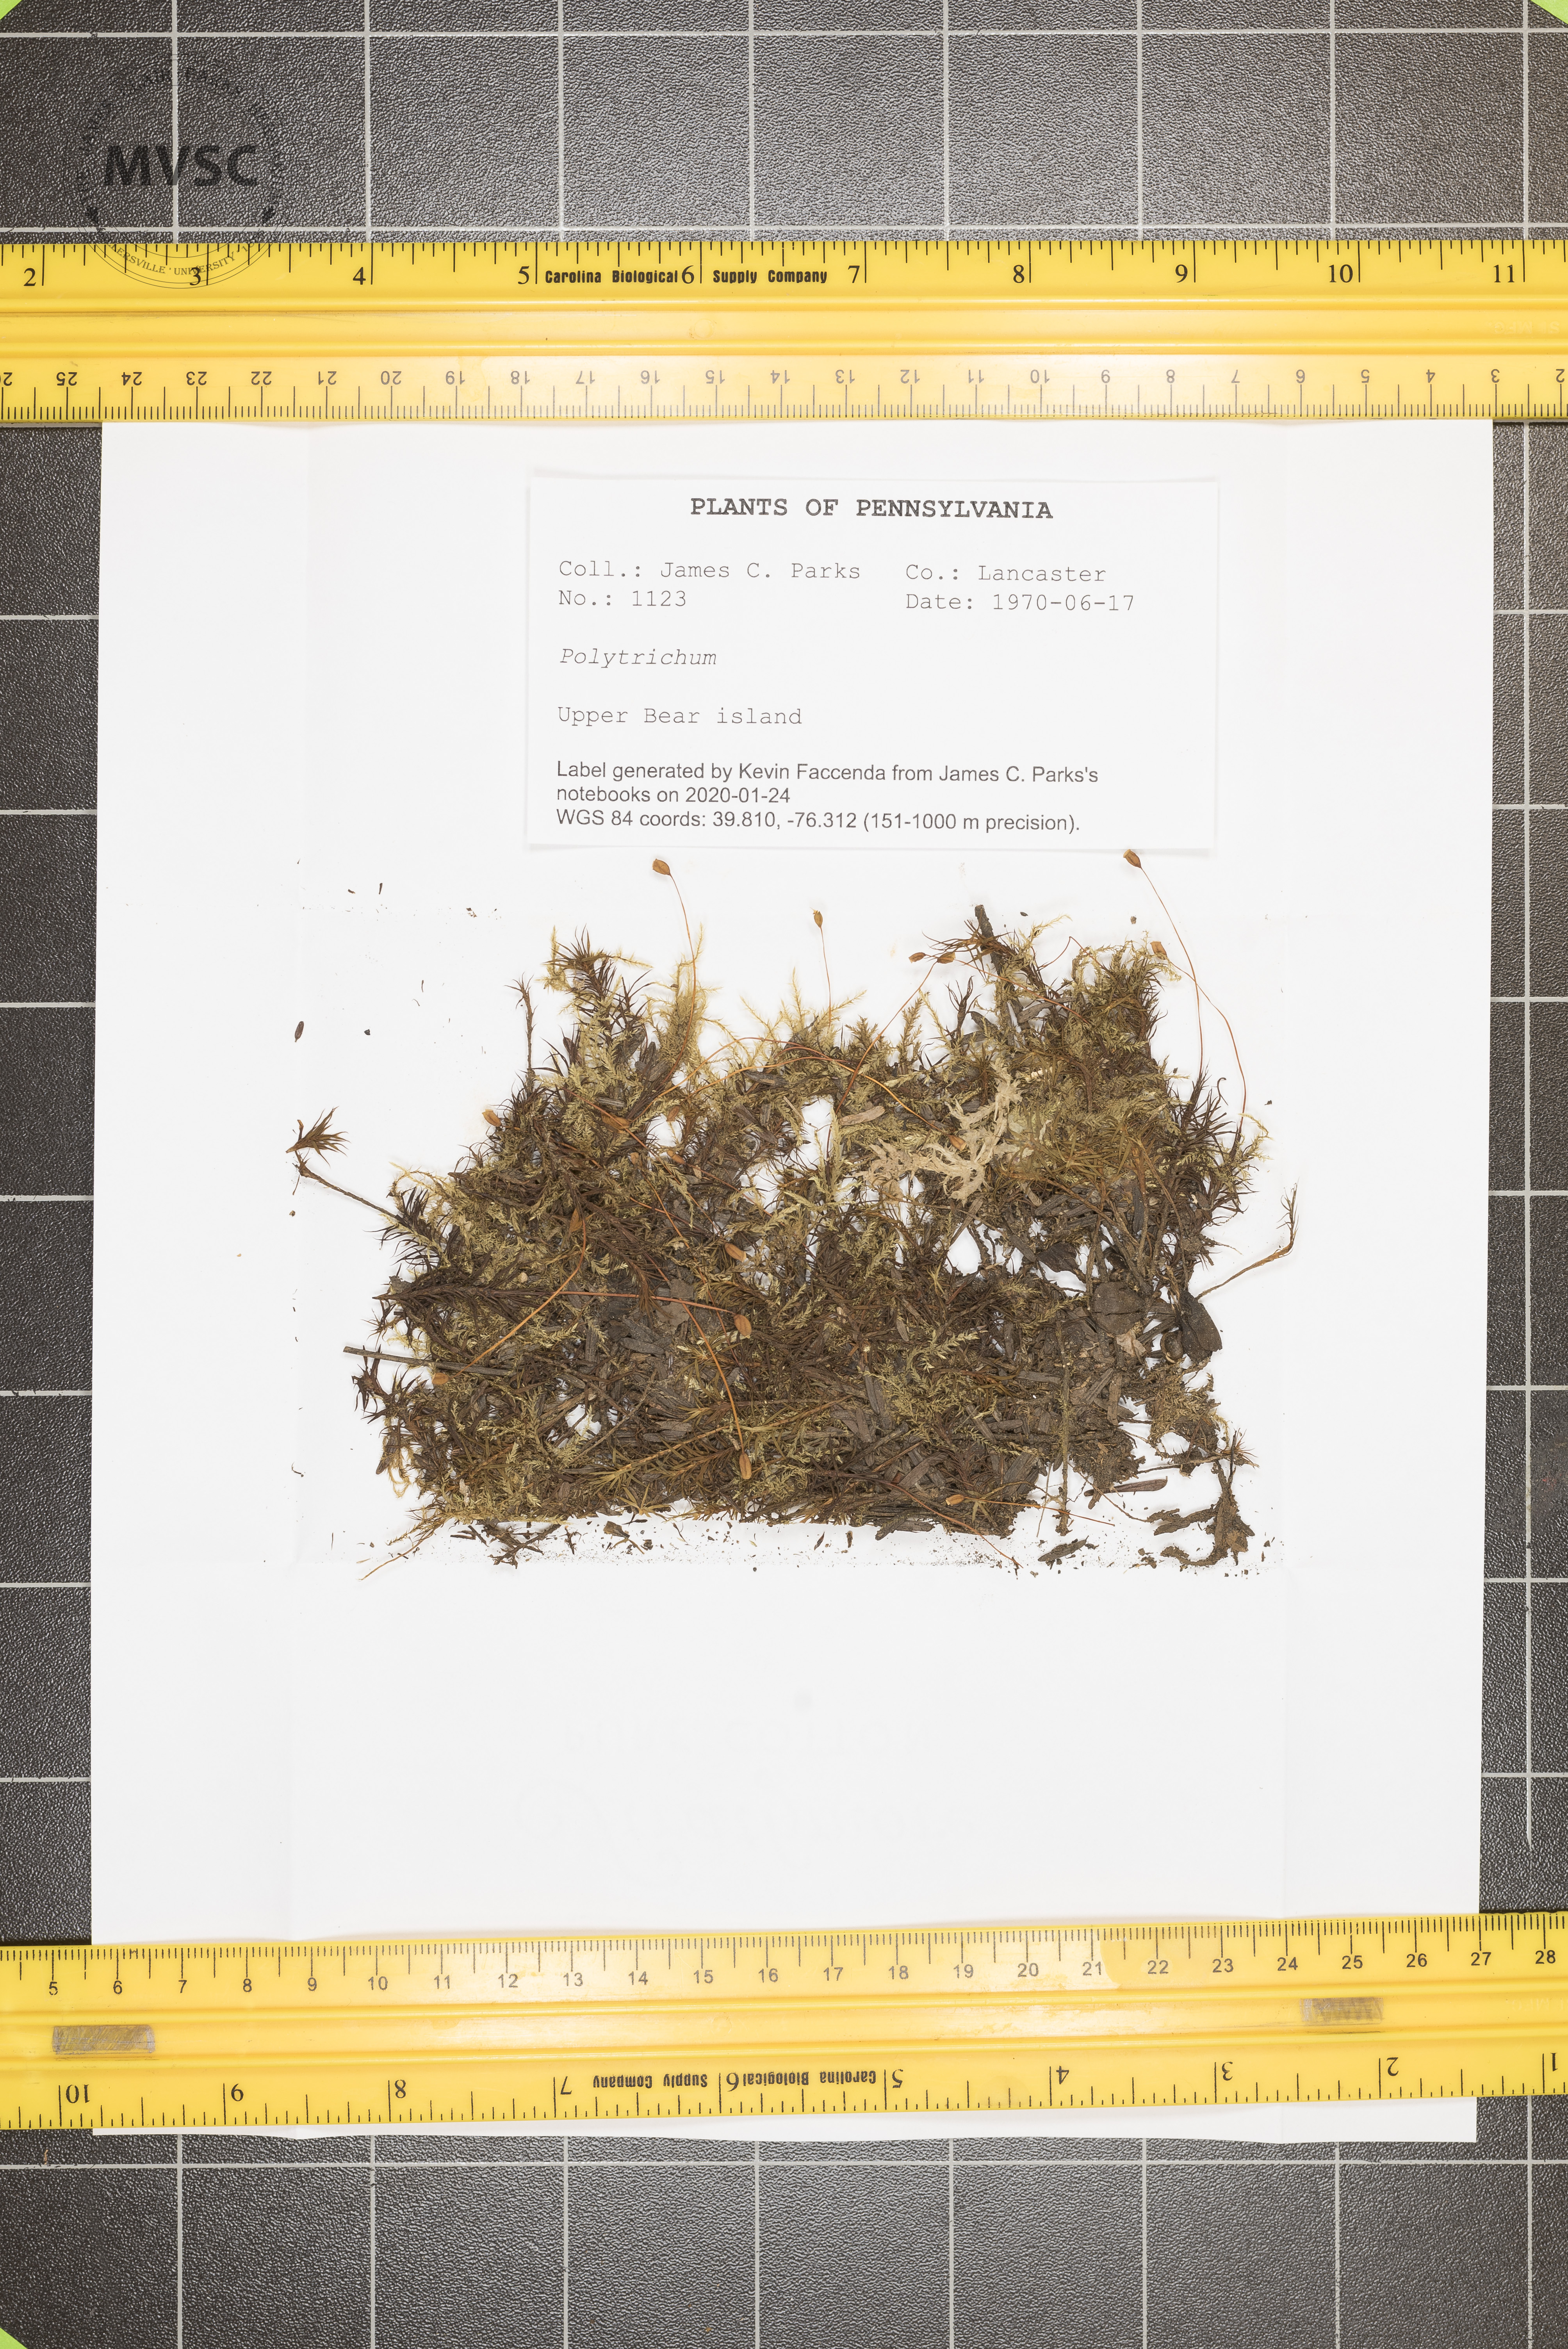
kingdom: Plantae
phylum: Bryophyta
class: Polytrichopsida
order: Polytrichales
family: Polytrichaceae
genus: Polytrichum
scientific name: Polytrichum
